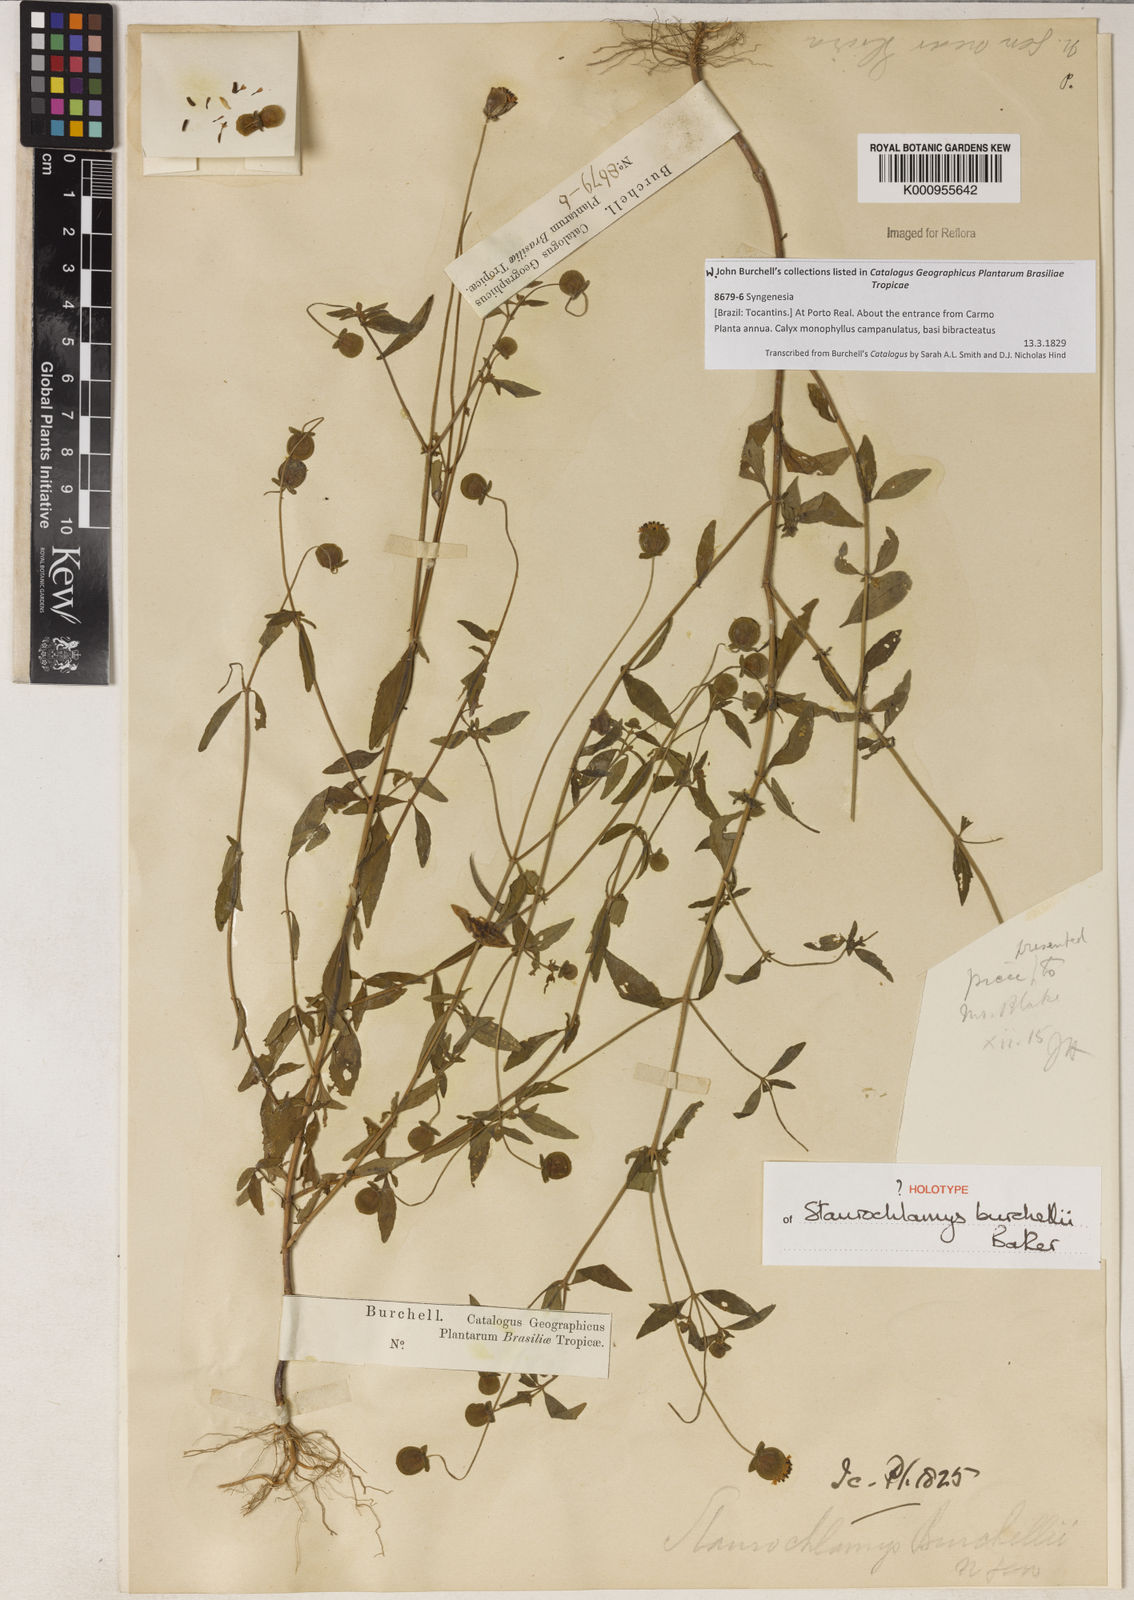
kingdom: Plantae
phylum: Tracheophyta
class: Magnoliopsida
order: Asterales
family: Asteraceae
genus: Staurochlamys
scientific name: Staurochlamys burchellii
